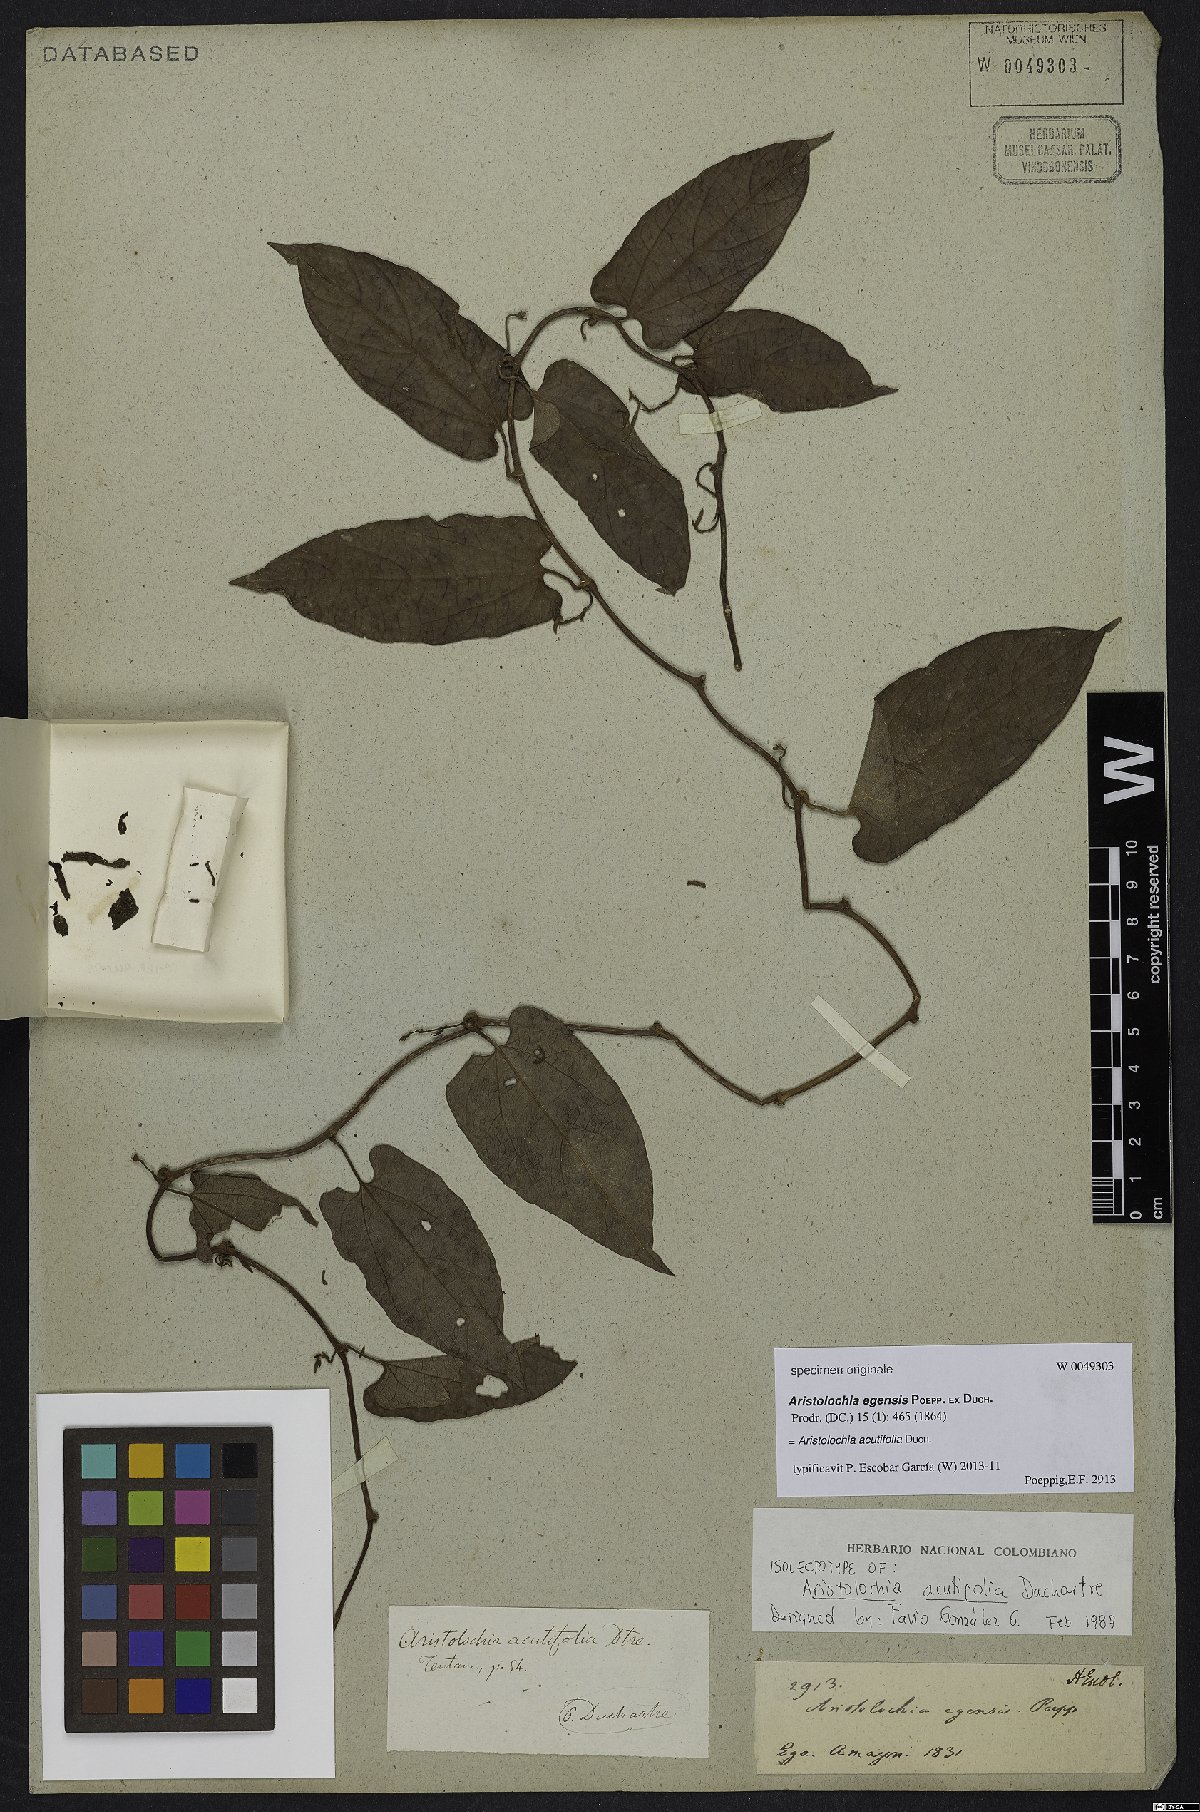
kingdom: Plantae
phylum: Tracheophyta
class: Magnoliopsida
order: Piperales
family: Aristolochiaceae
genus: Aristolochia
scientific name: Aristolochia acutifolia
